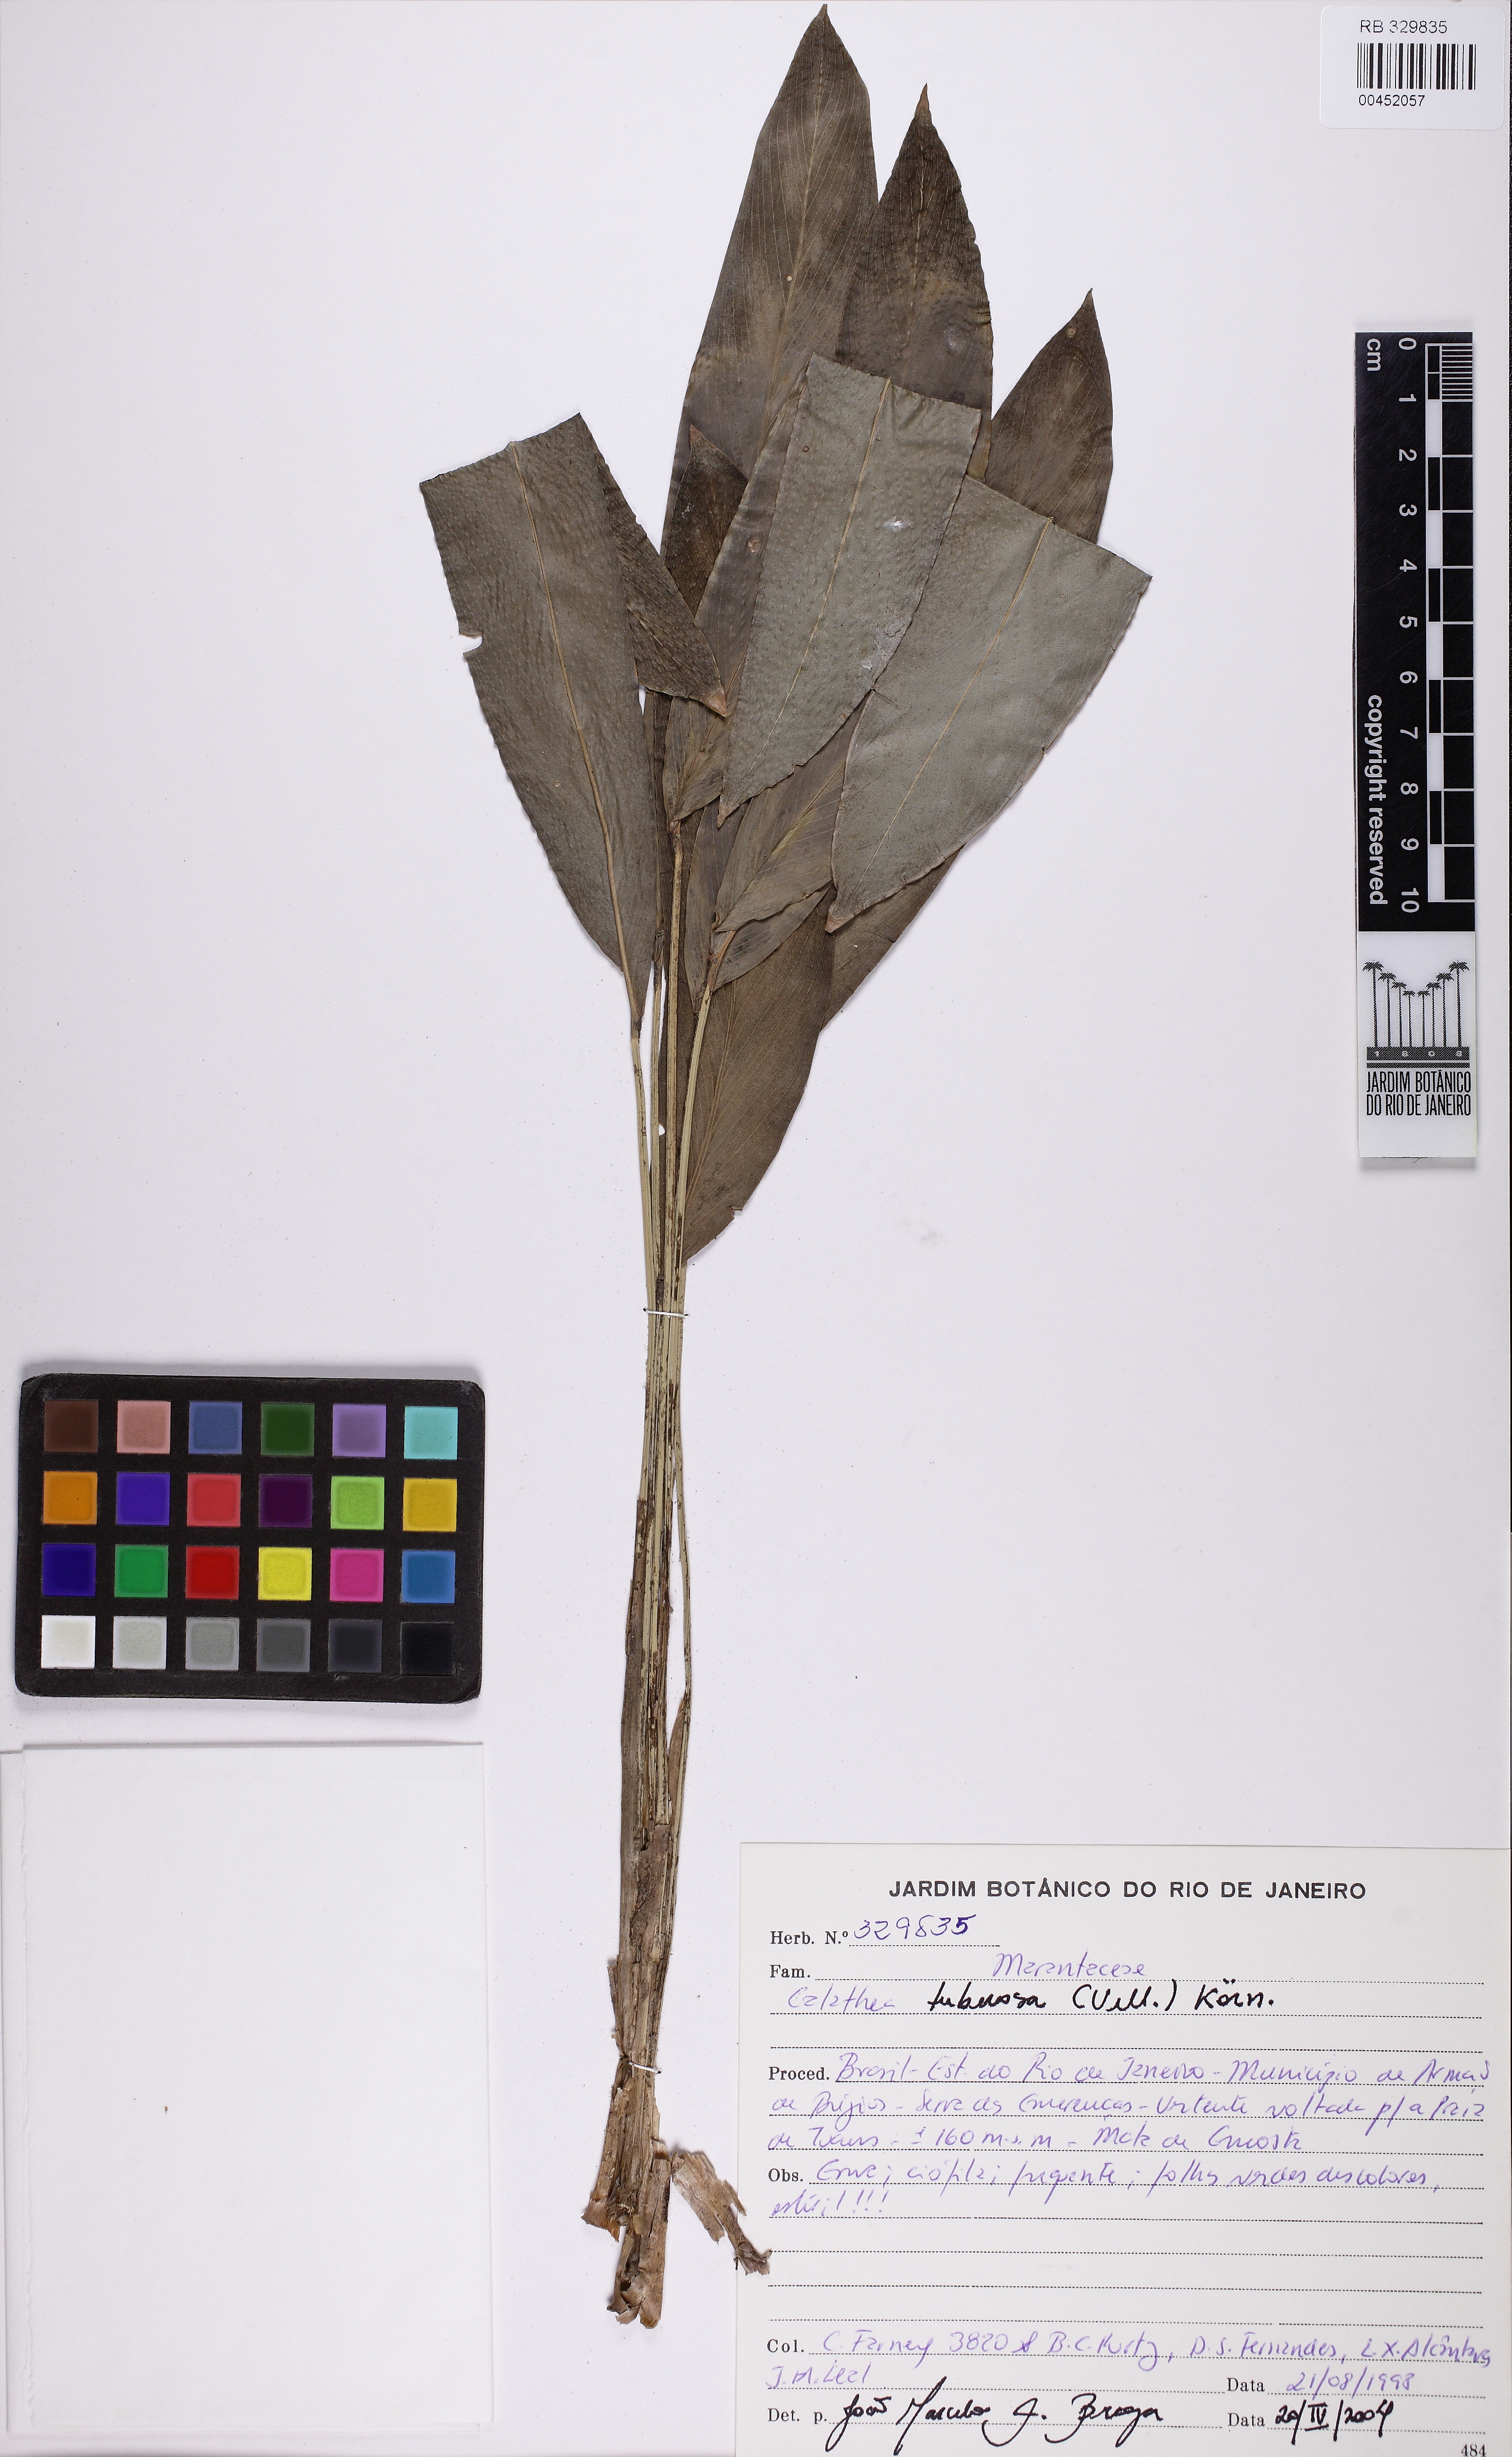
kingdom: Plantae
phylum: Tracheophyta
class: Liliopsida
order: Zingiberales
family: Marantaceae
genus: Goeppertia
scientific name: Goeppertia tuberosa
